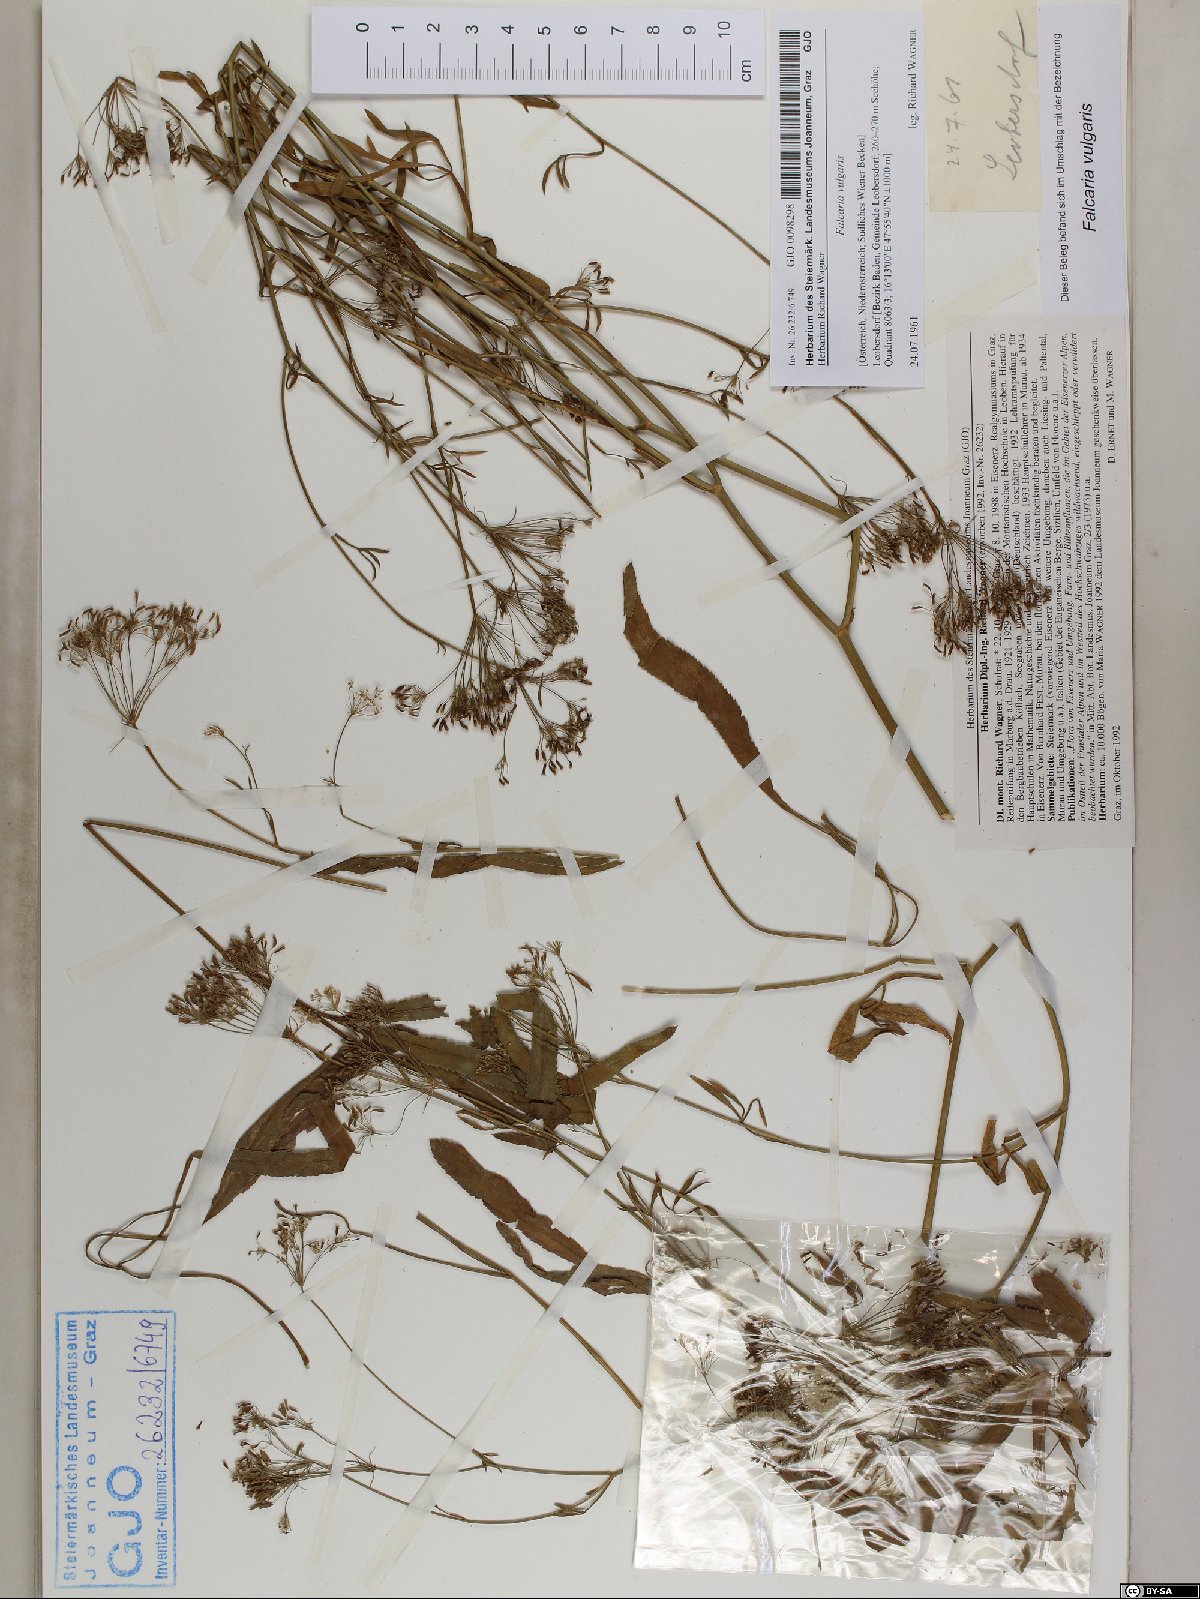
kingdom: Plantae
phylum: Tracheophyta
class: Magnoliopsida
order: Apiales
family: Apiaceae
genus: Falcaria
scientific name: Falcaria vulgaris
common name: Longleaf
